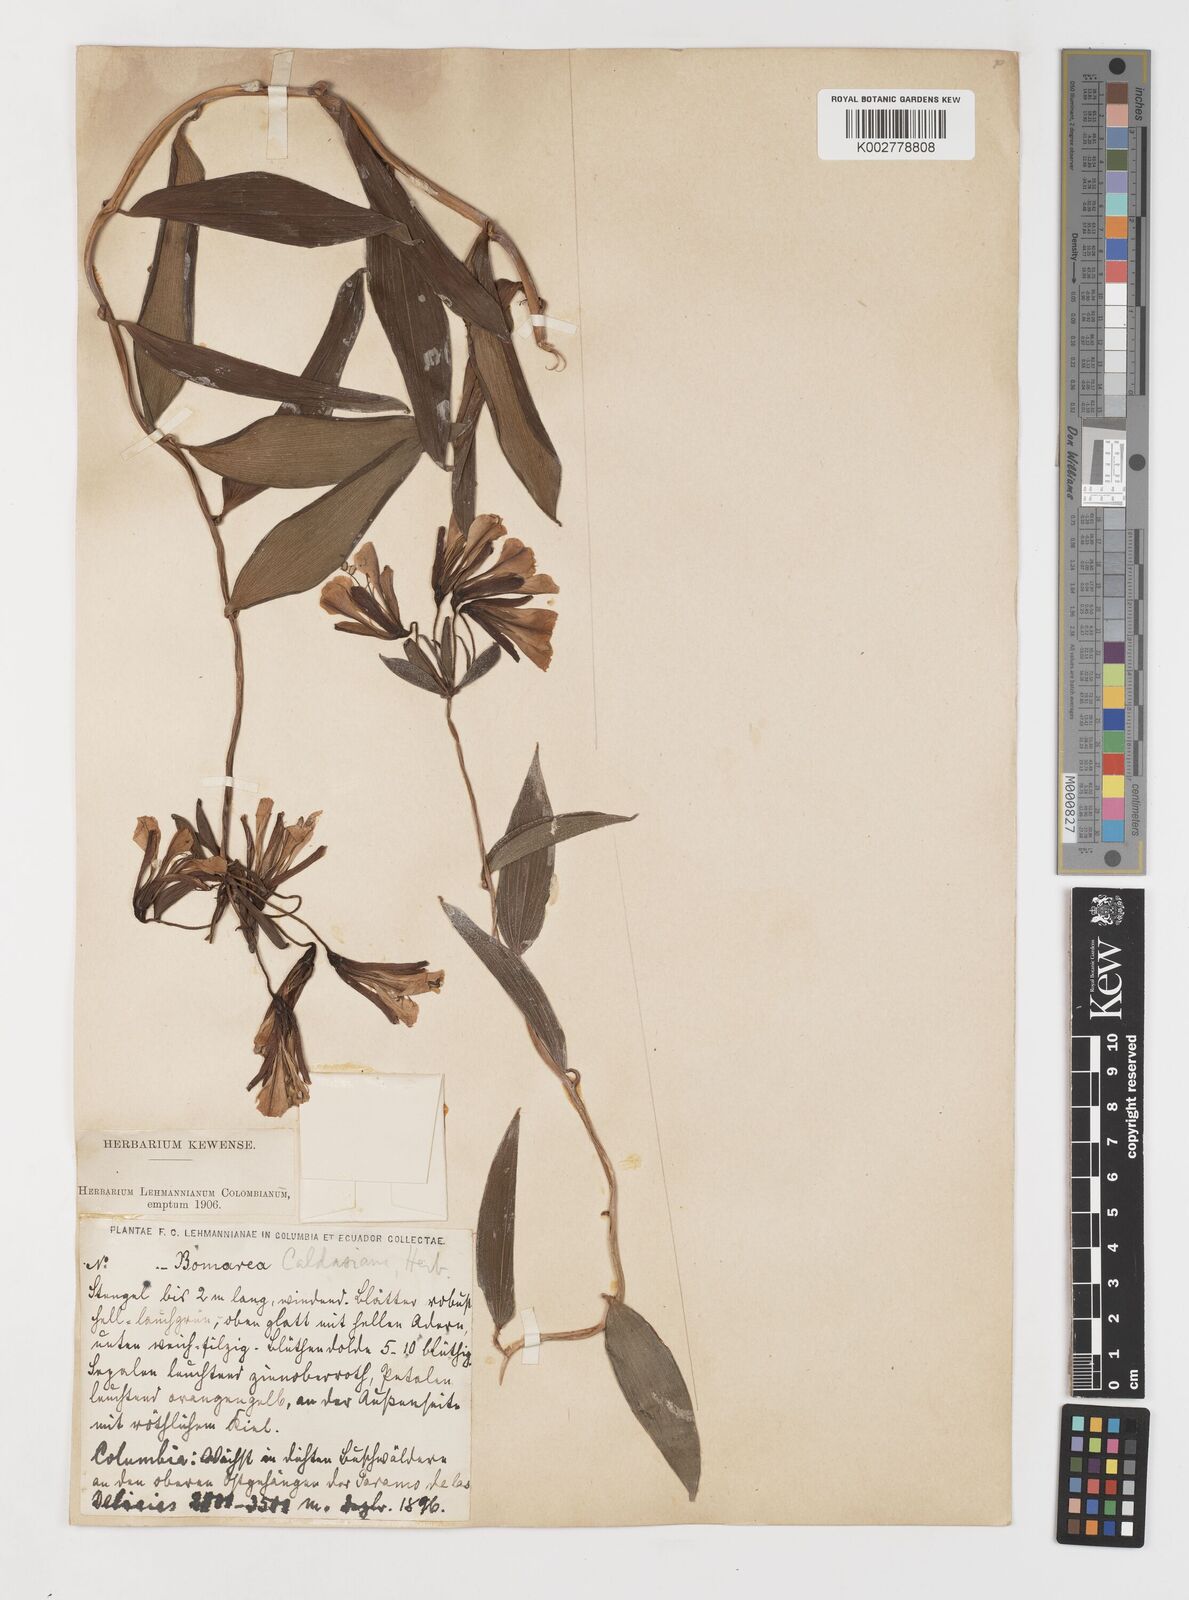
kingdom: Plantae
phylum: Tracheophyta
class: Liliopsida
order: Liliales
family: Alstroemeriaceae
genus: Bomarea
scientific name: Bomarea hirsuta
